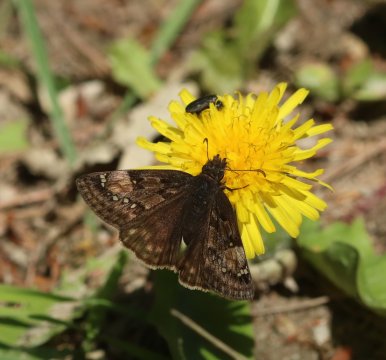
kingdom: Animalia
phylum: Arthropoda
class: Insecta
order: Lepidoptera
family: Hesperiidae
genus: Gesta
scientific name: Gesta
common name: Juvenal's Duskywing
